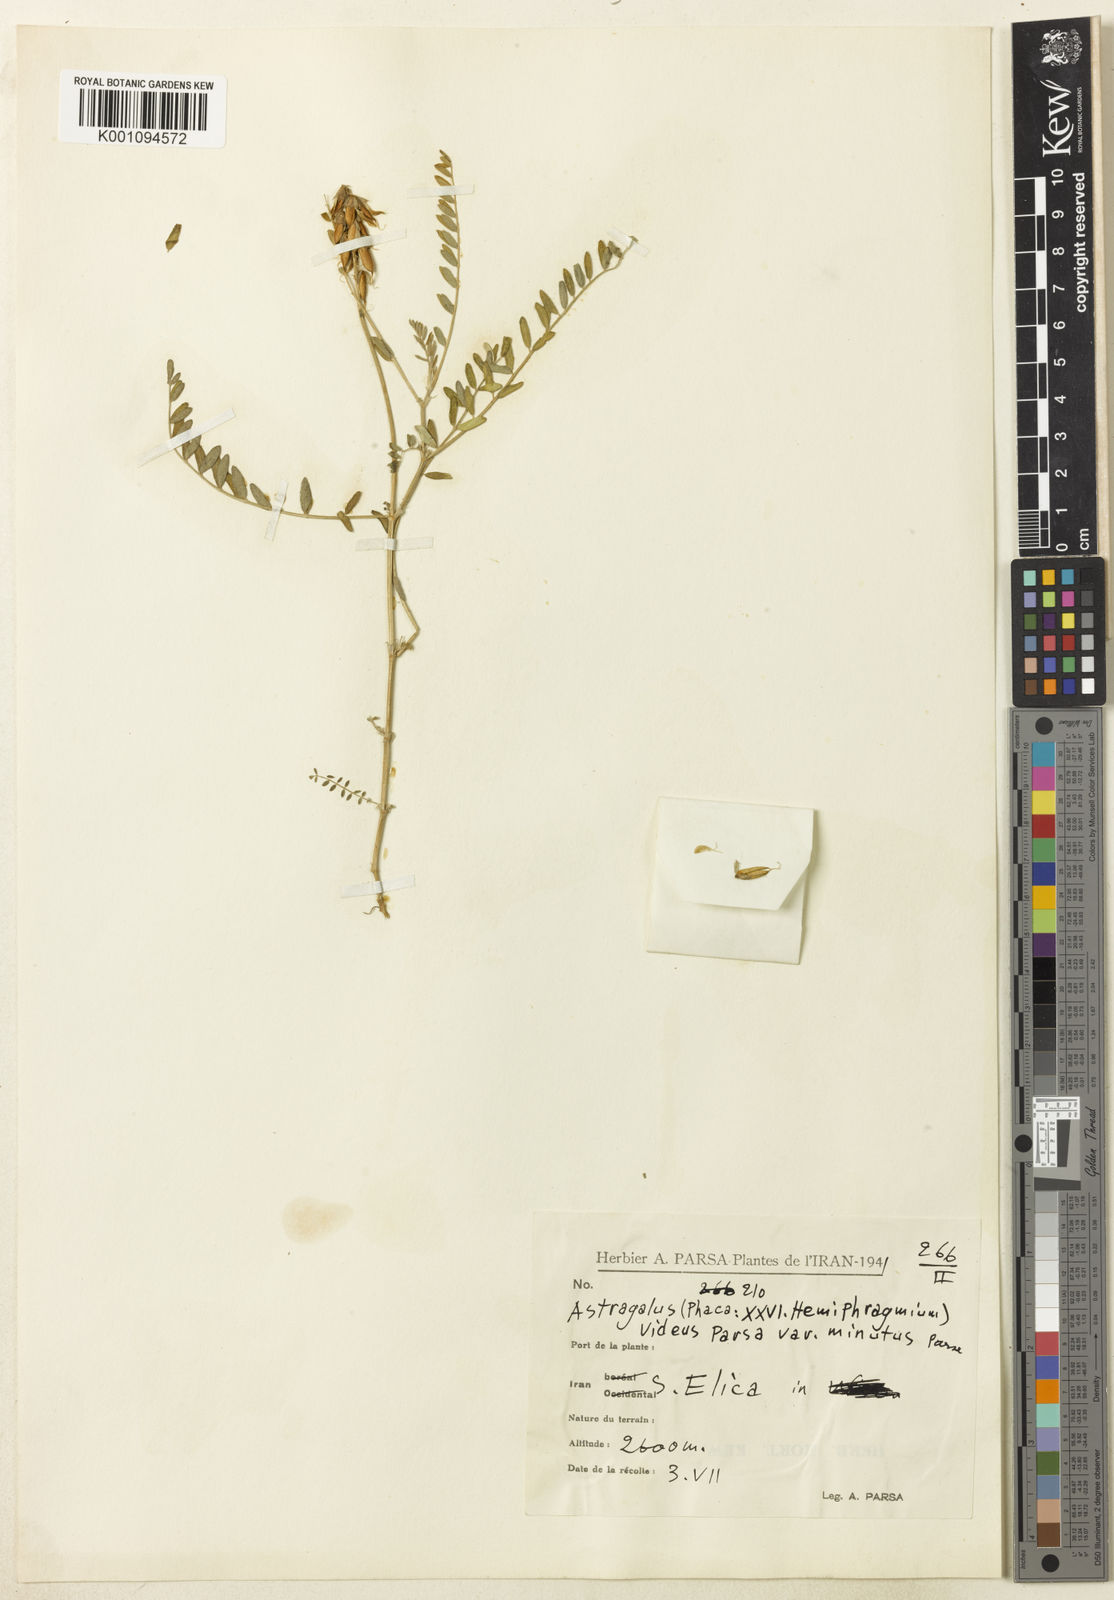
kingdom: Plantae
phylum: Tracheophyta
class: Magnoliopsida
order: Fabales
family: Fabaceae
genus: Astragalus
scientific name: Astragalus odoratus
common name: Lesser milk-vetch
